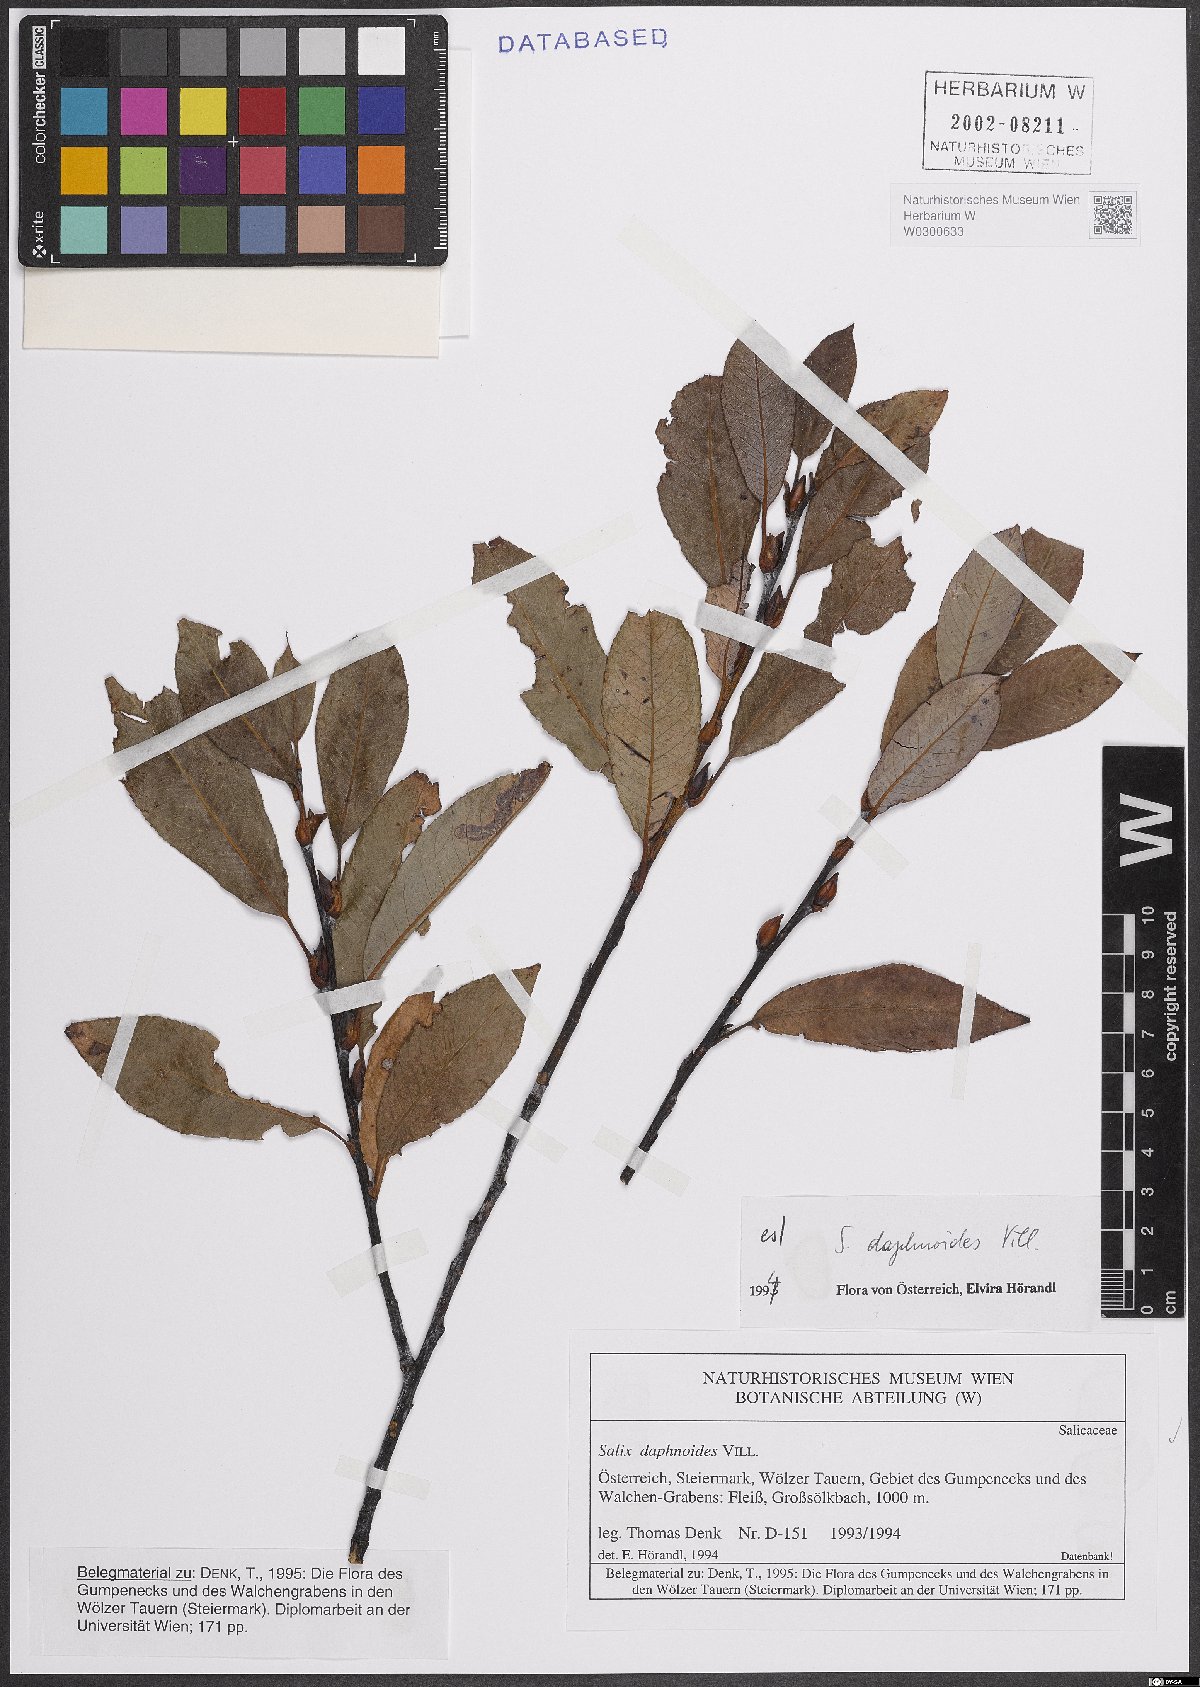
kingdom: Plantae
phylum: Tracheophyta
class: Magnoliopsida
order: Malpighiales
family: Salicaceae
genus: Salix
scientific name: Salix daphnoides
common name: European violet-willow
